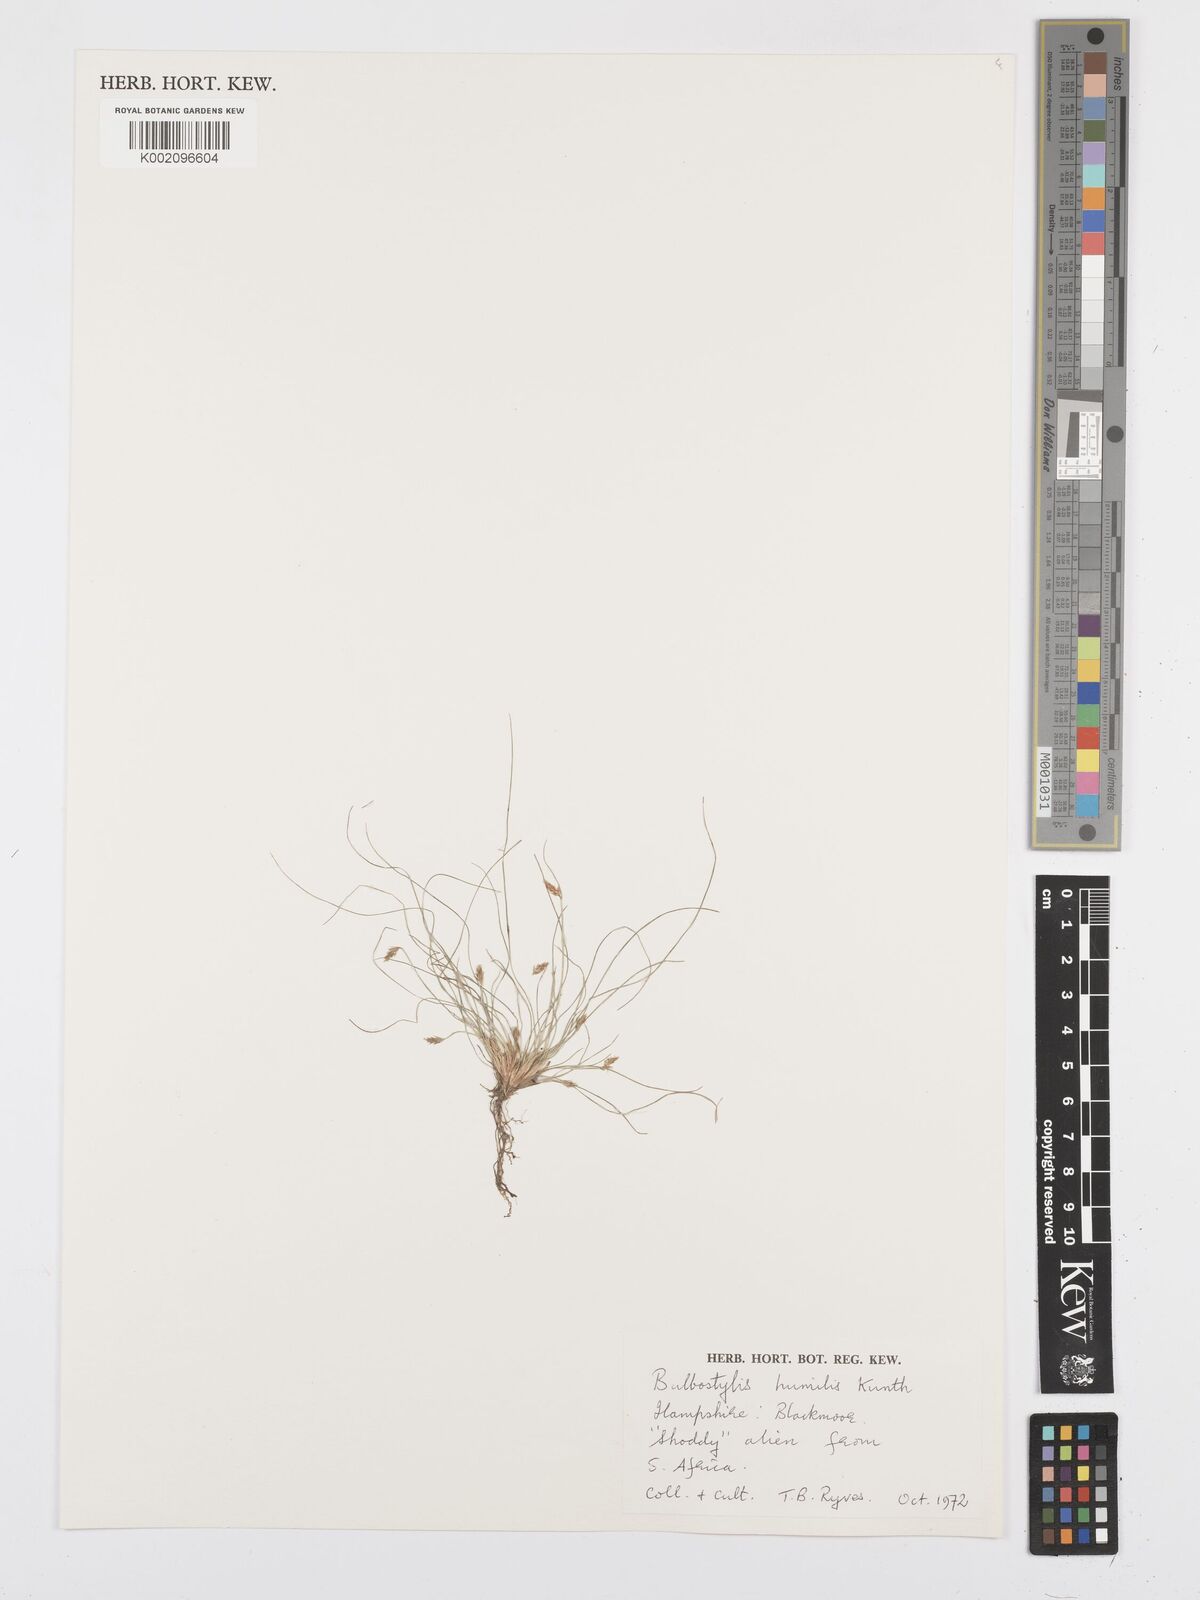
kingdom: Plantae
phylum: Tracheophyta
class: Liliopsida
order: Poales
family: Cyperaceae
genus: Bulbostylis
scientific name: Bulbostylis humilis
